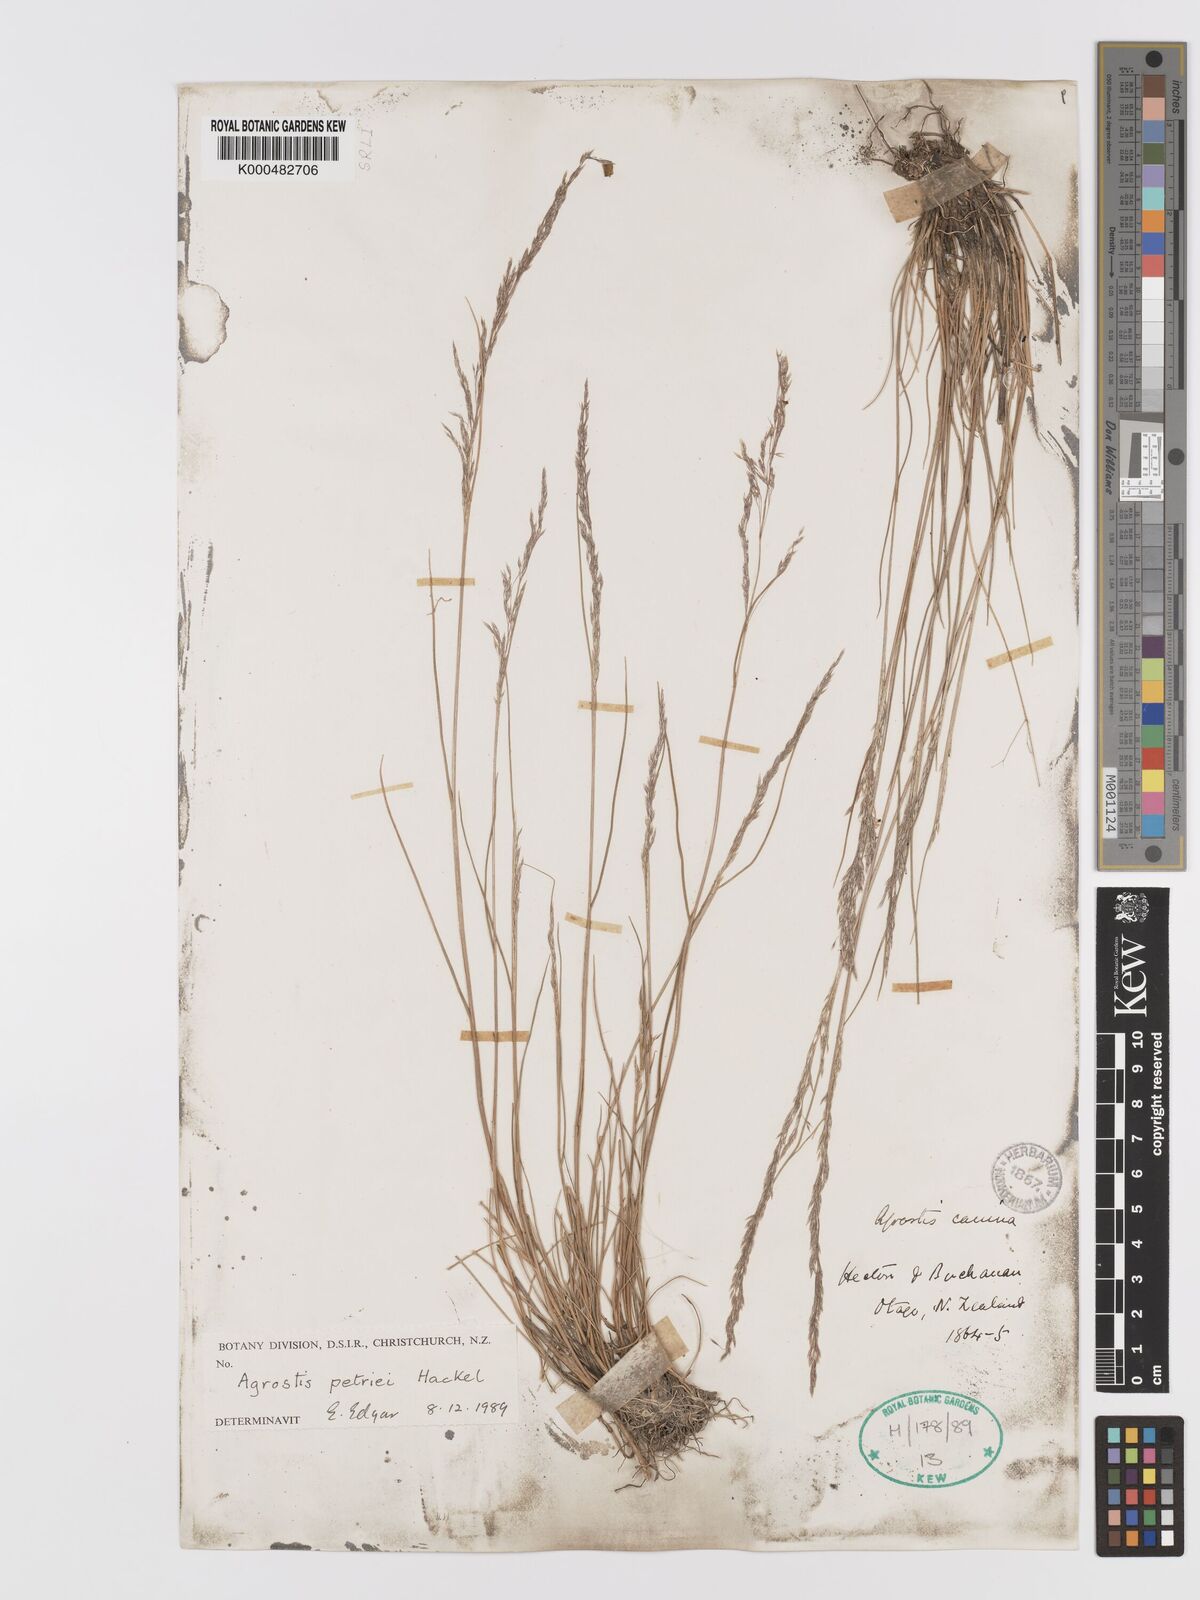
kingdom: Plantae
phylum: Tracheophyta
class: Liliopsida
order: Poales
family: Poaceae
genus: Agrostis
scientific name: Agrostis petriei
